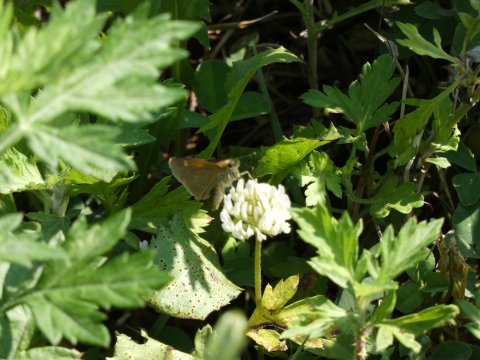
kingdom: Animalia
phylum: Arthropoda
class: Insecta
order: Lepidoptera
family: Hesperiidae
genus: Polites
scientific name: Polites themistocles
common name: Tawny-edged Skipper
